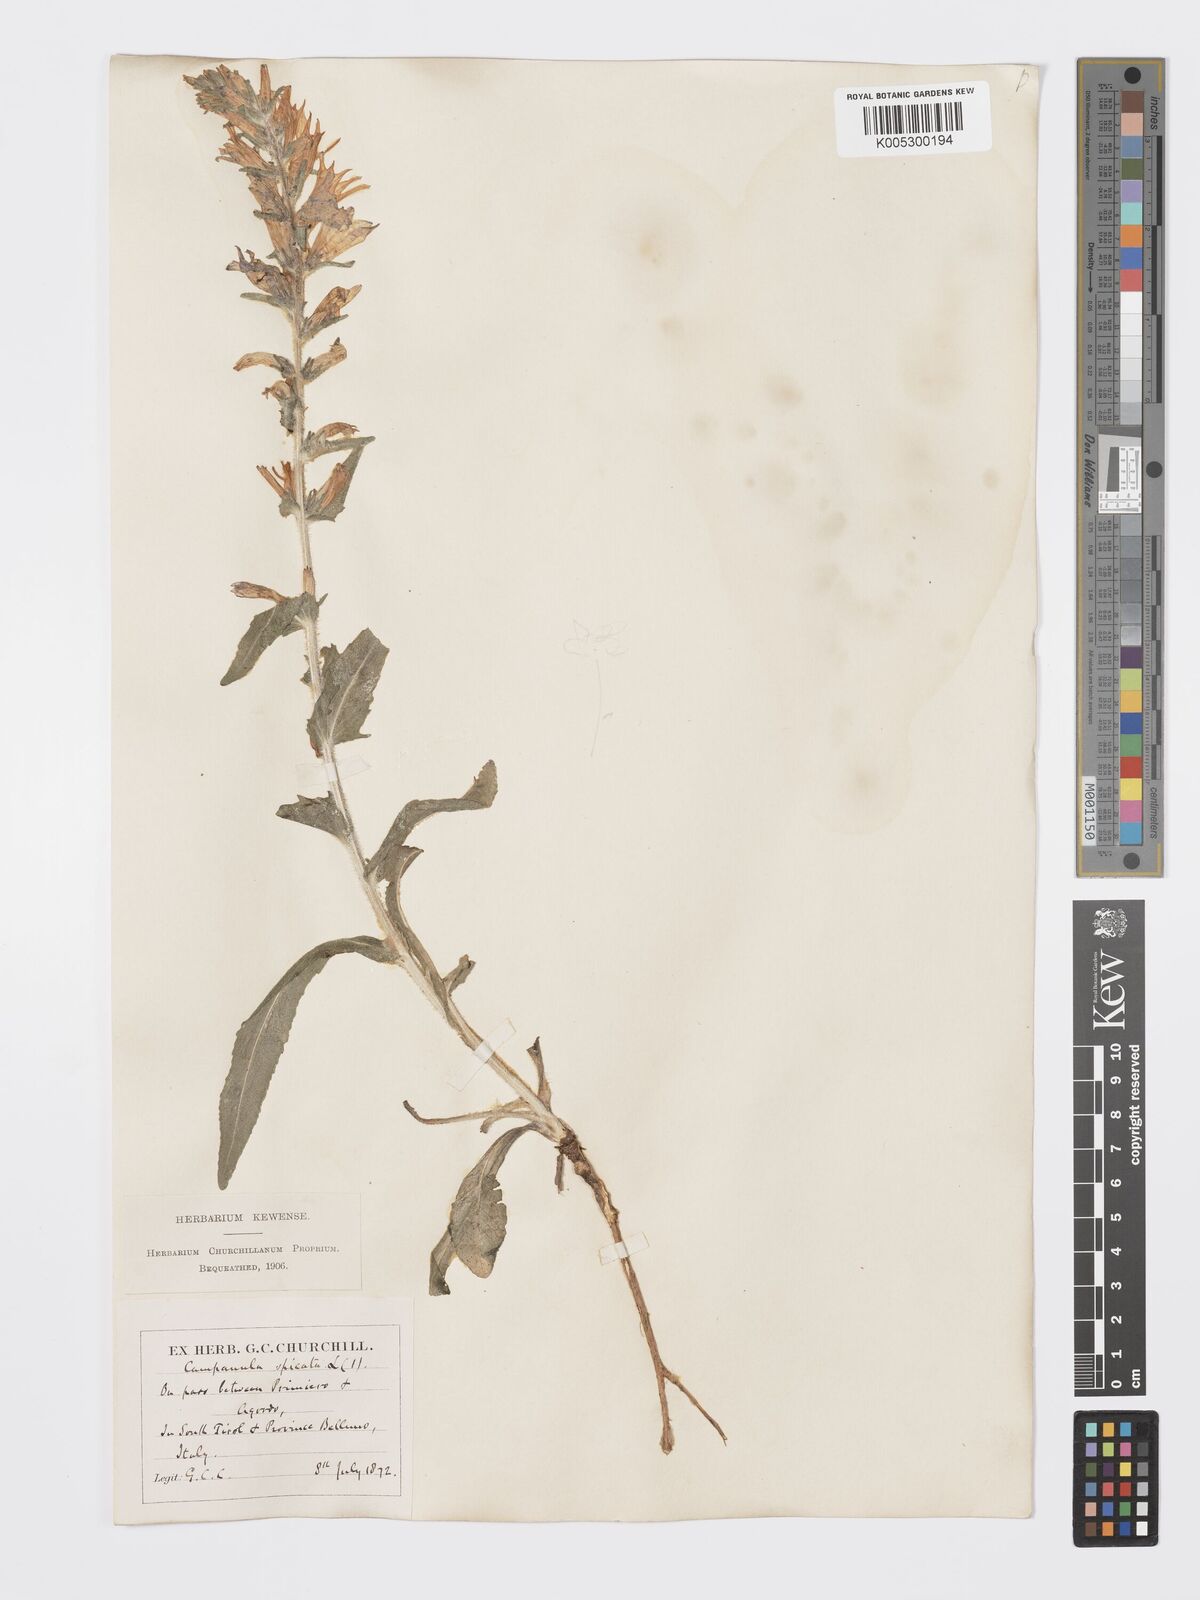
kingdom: Plantae
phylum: Tracheophyta
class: Magnoliopsida
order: Asterales
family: Campanulaceae
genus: Campanula
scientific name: Campanula spicata
